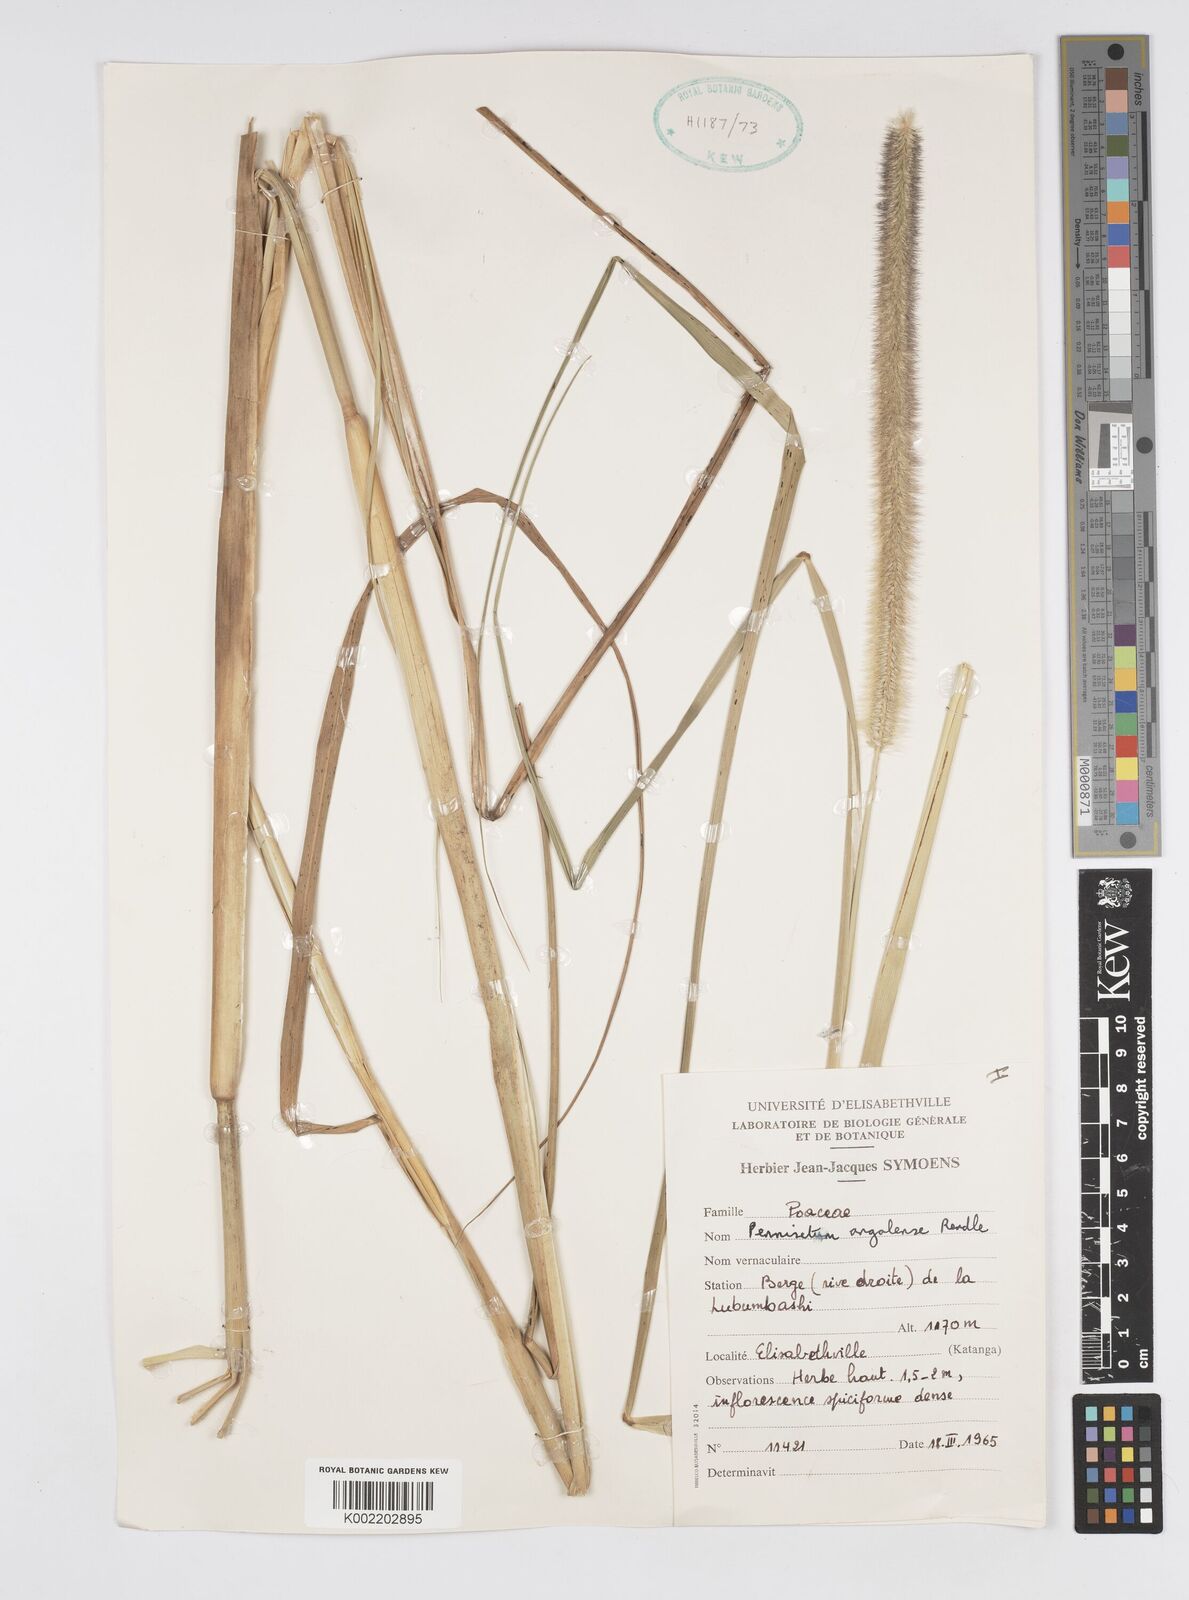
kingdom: Plantae
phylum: Tracheophyta
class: Liliopsida
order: Poales
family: Poaceae
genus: Cenchrus
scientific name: Cenchrus caudatus
